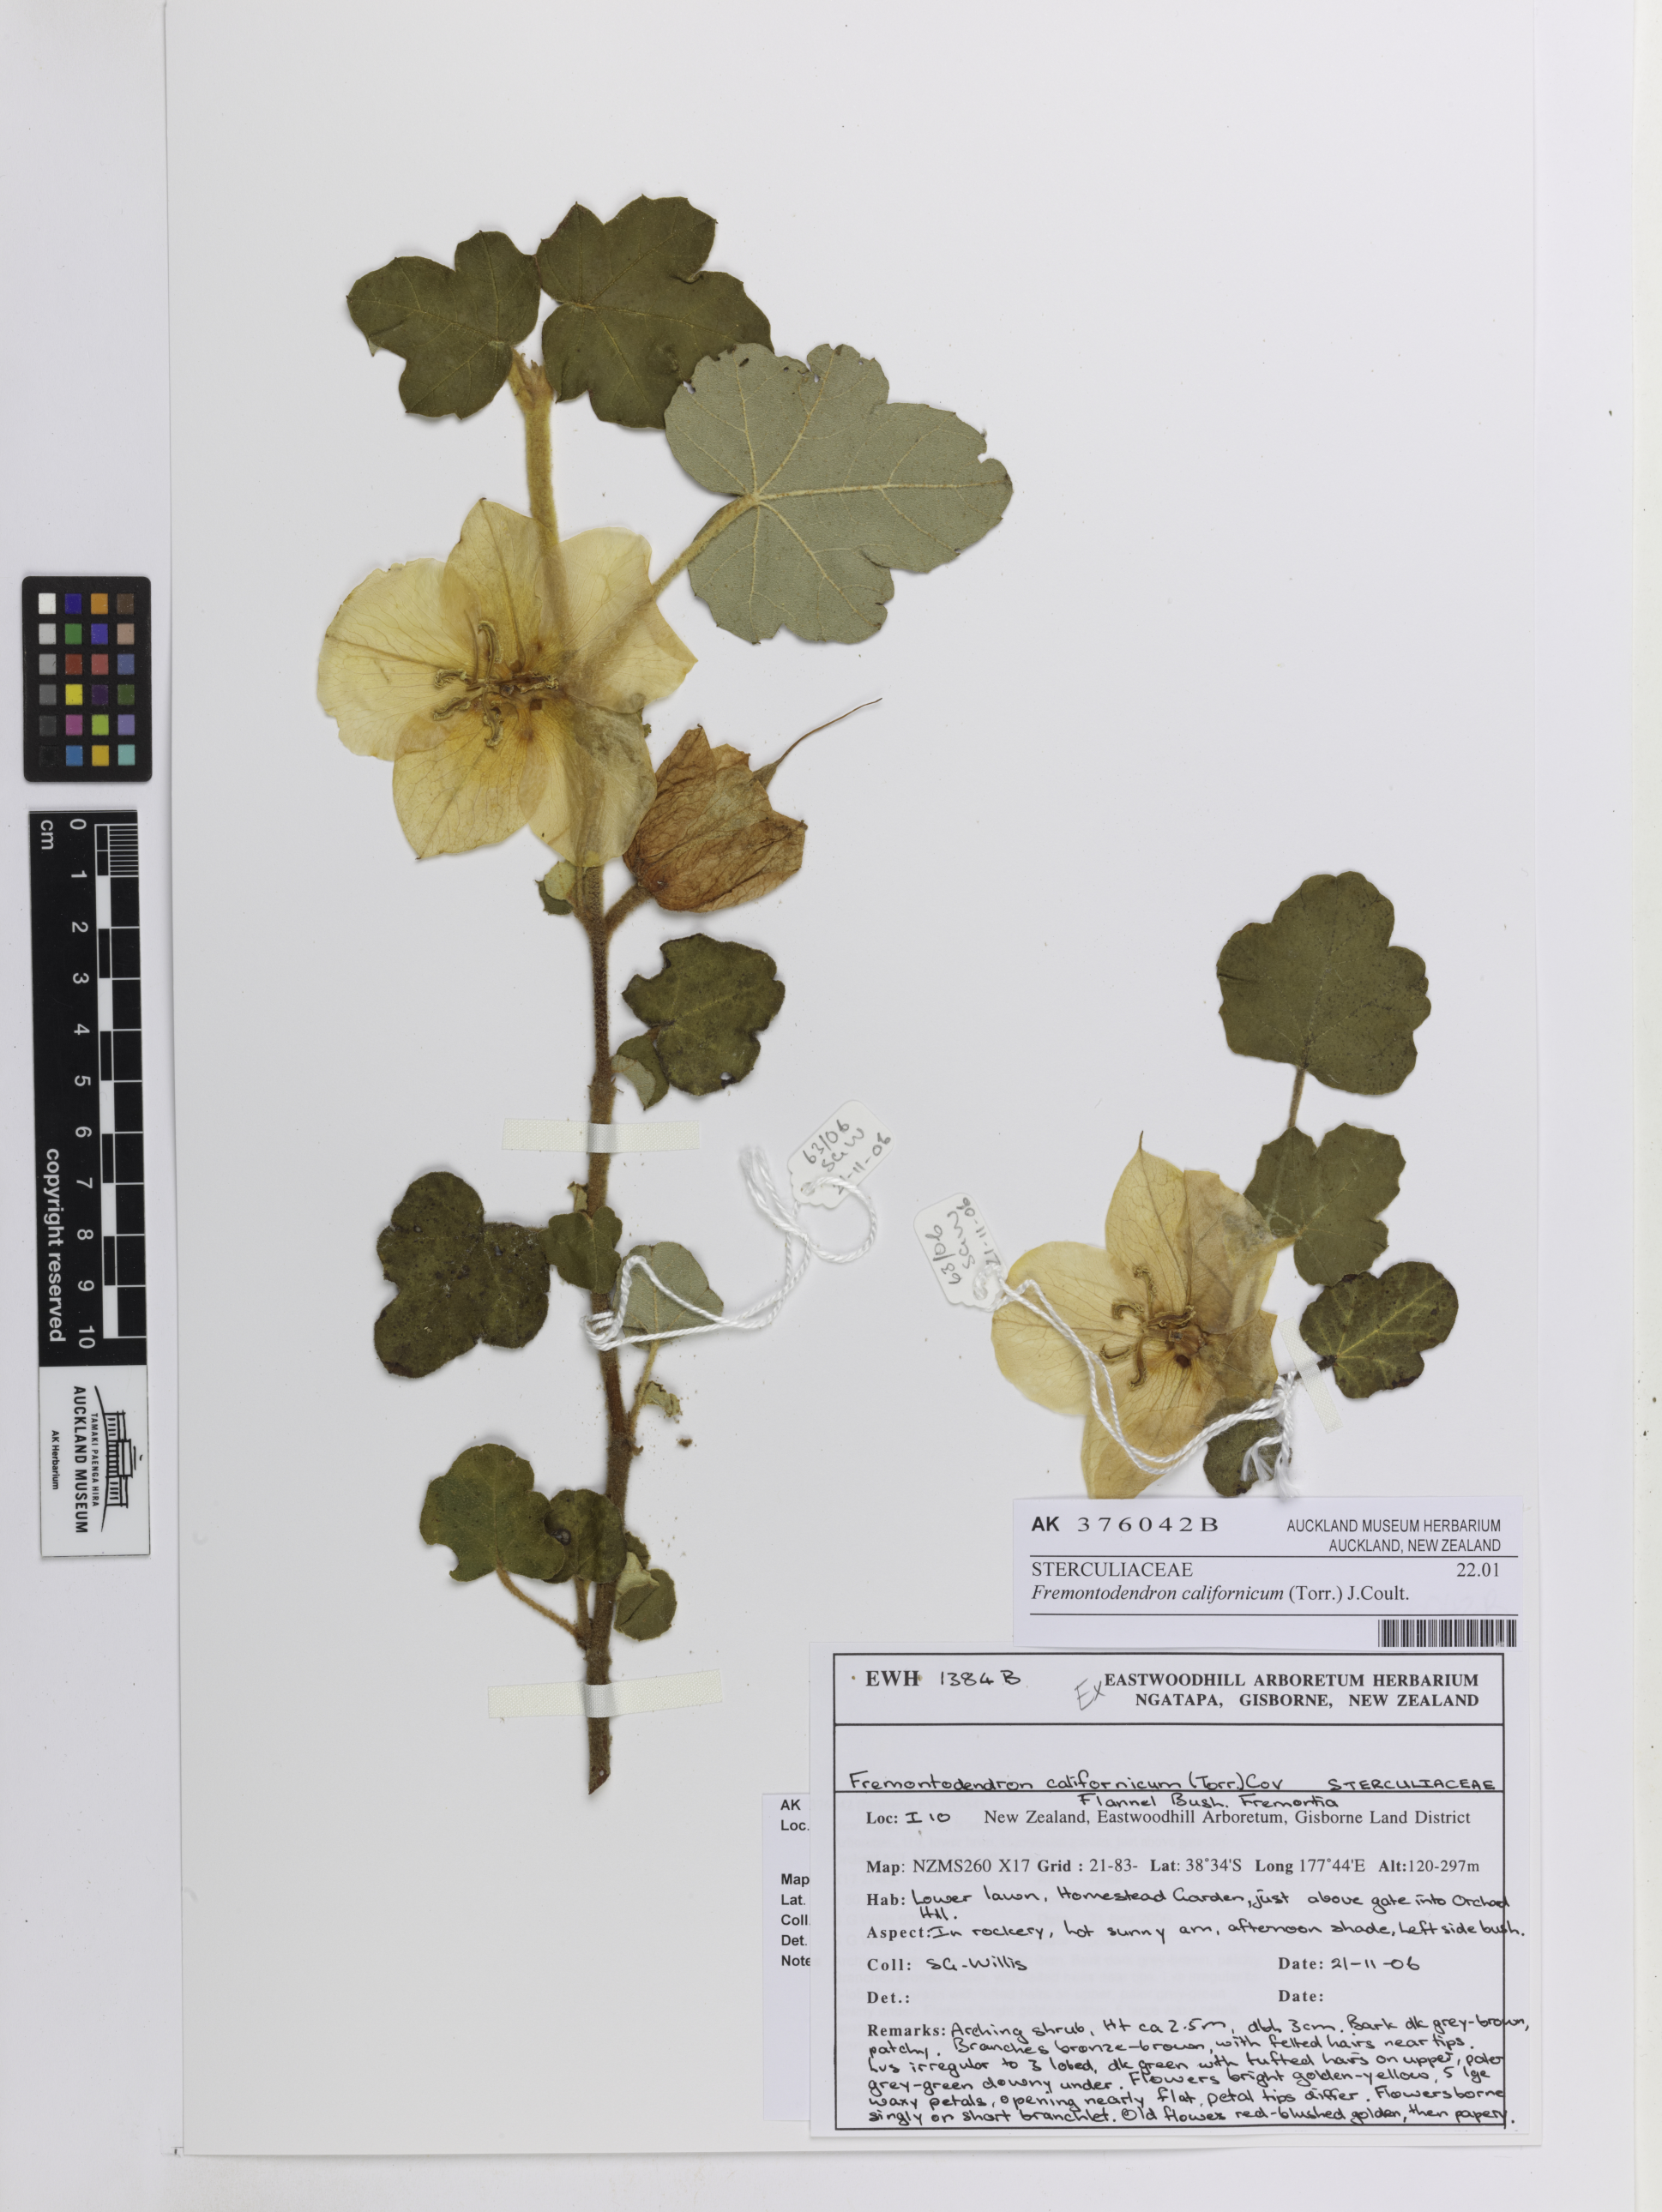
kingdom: Plantae
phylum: Tracheophyta
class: Magnoliopsida
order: Malvales
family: Malvaceae
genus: Fremontodendron
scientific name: Fremontodendron californicum
